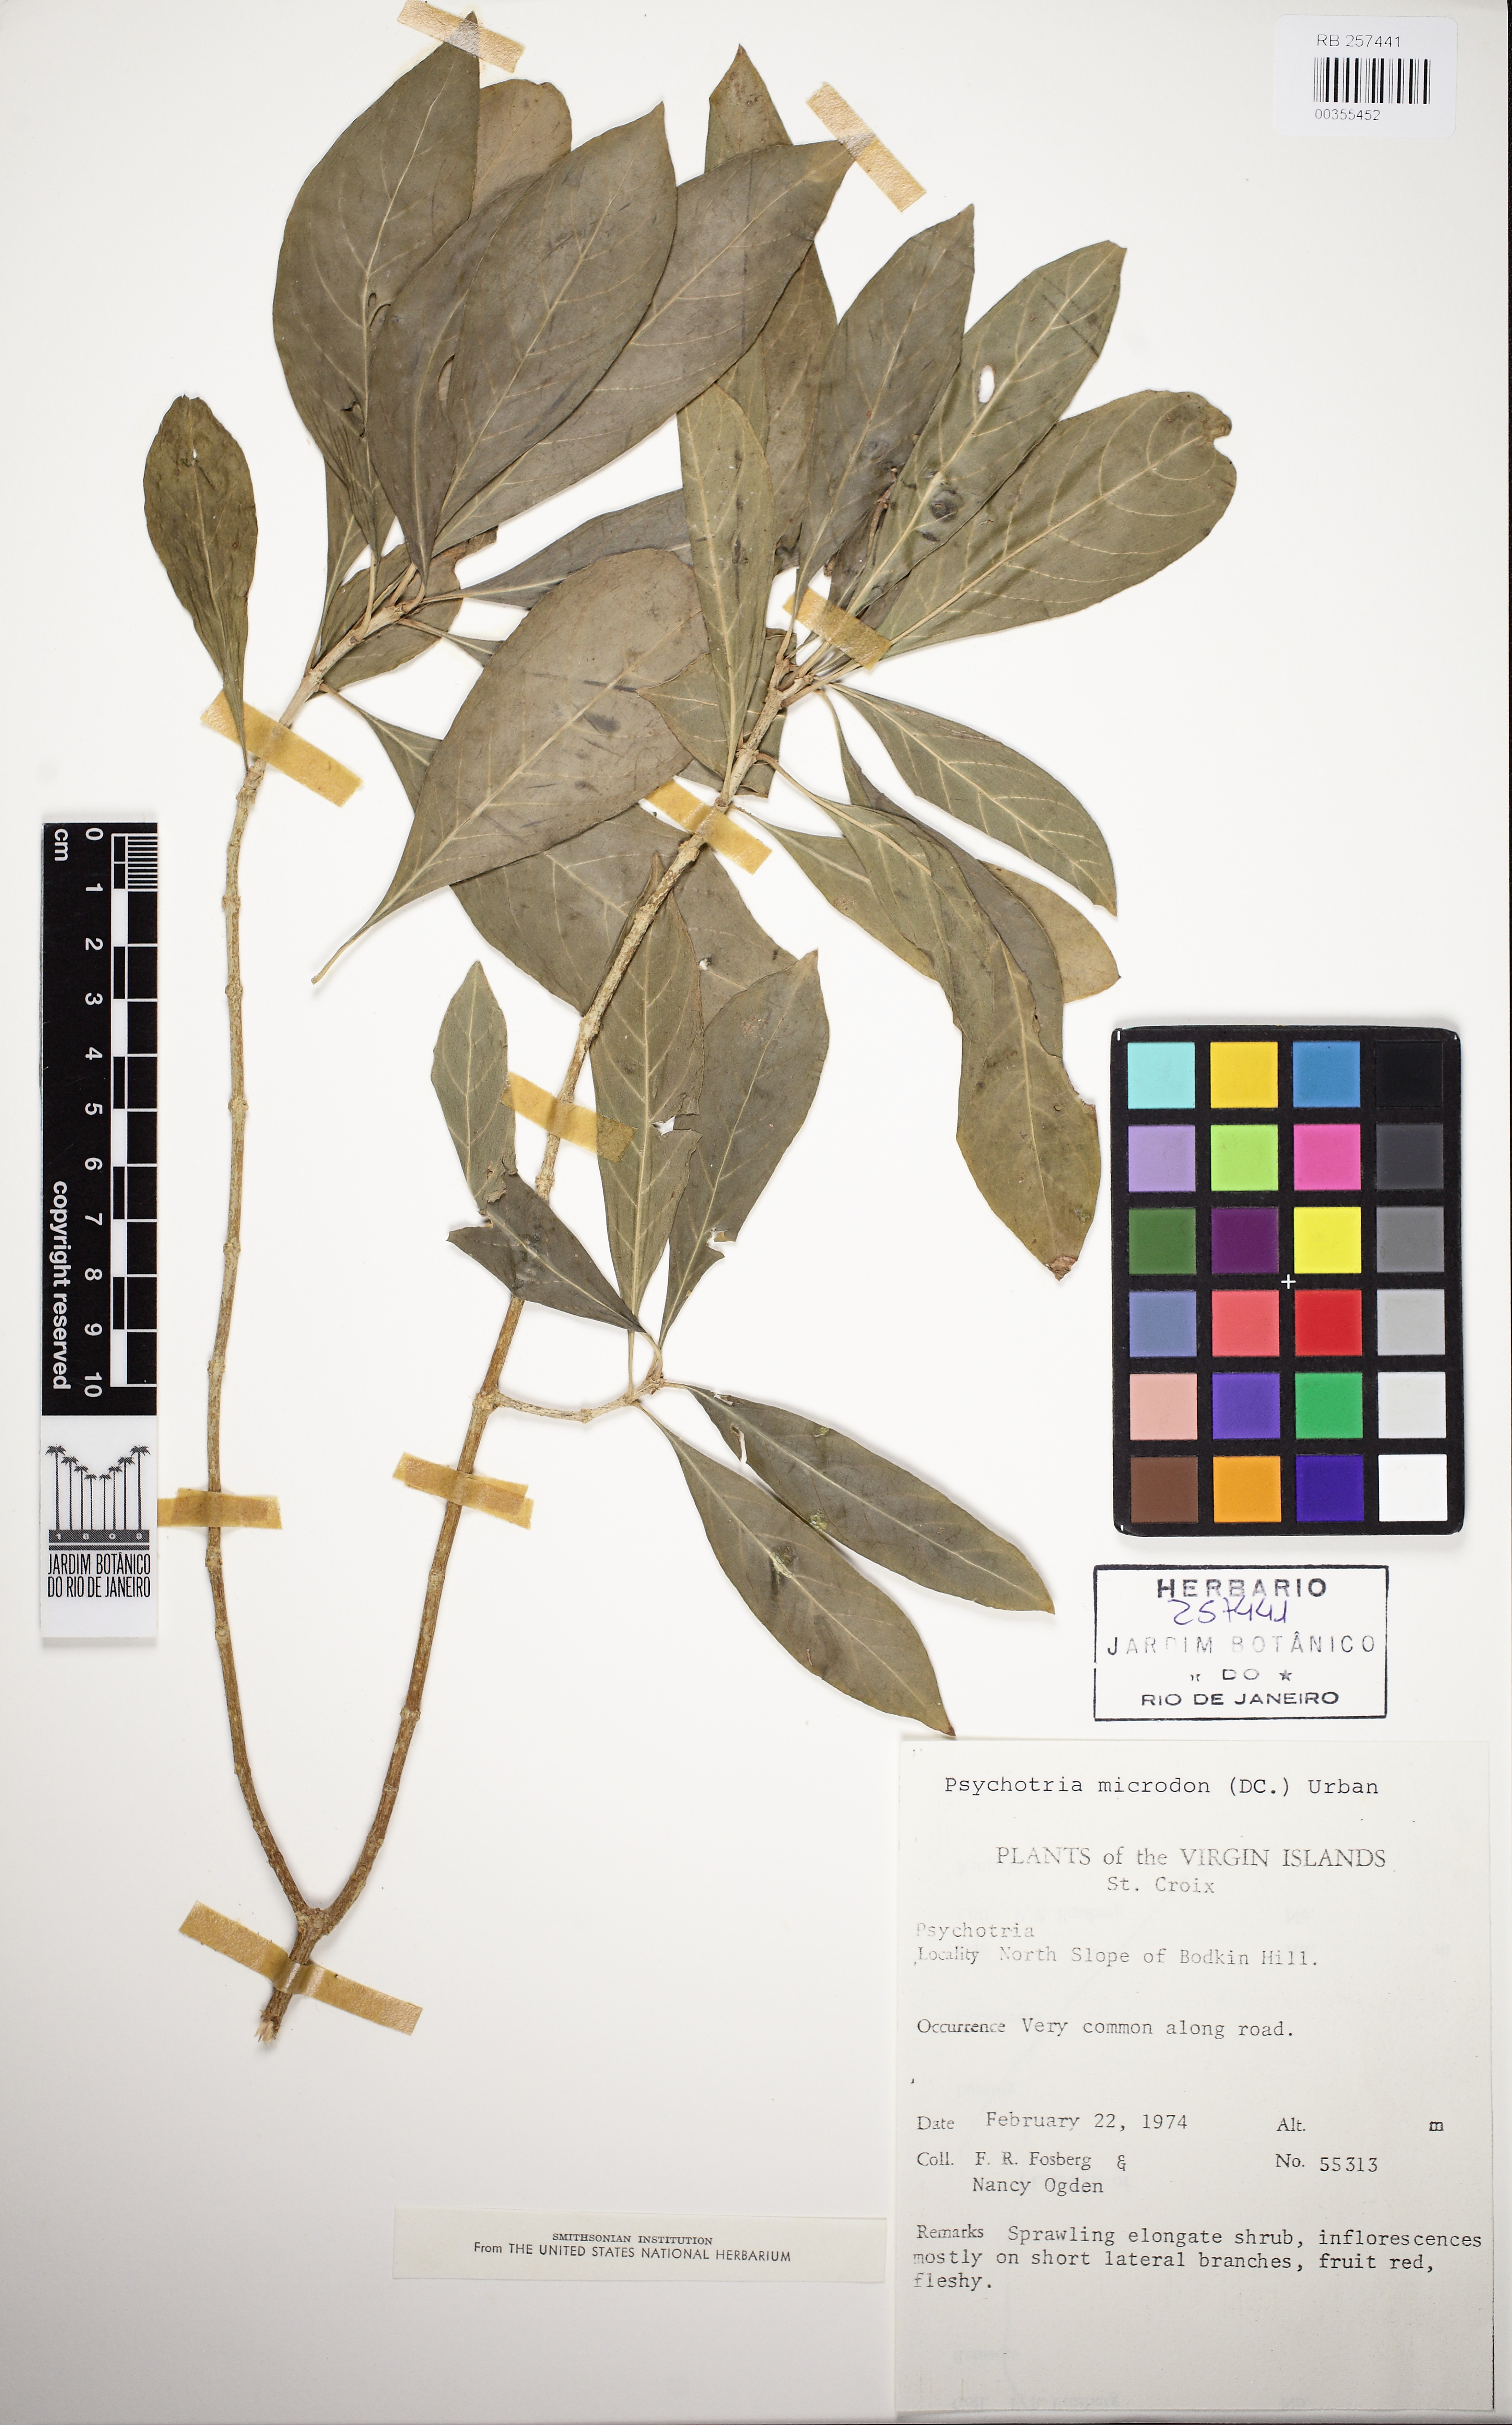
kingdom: Plantae
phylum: Tracheophyta
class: Magnoliopsida
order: Gentianales
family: Rubiaceae
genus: Eumachia
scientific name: Eumachia microdon
